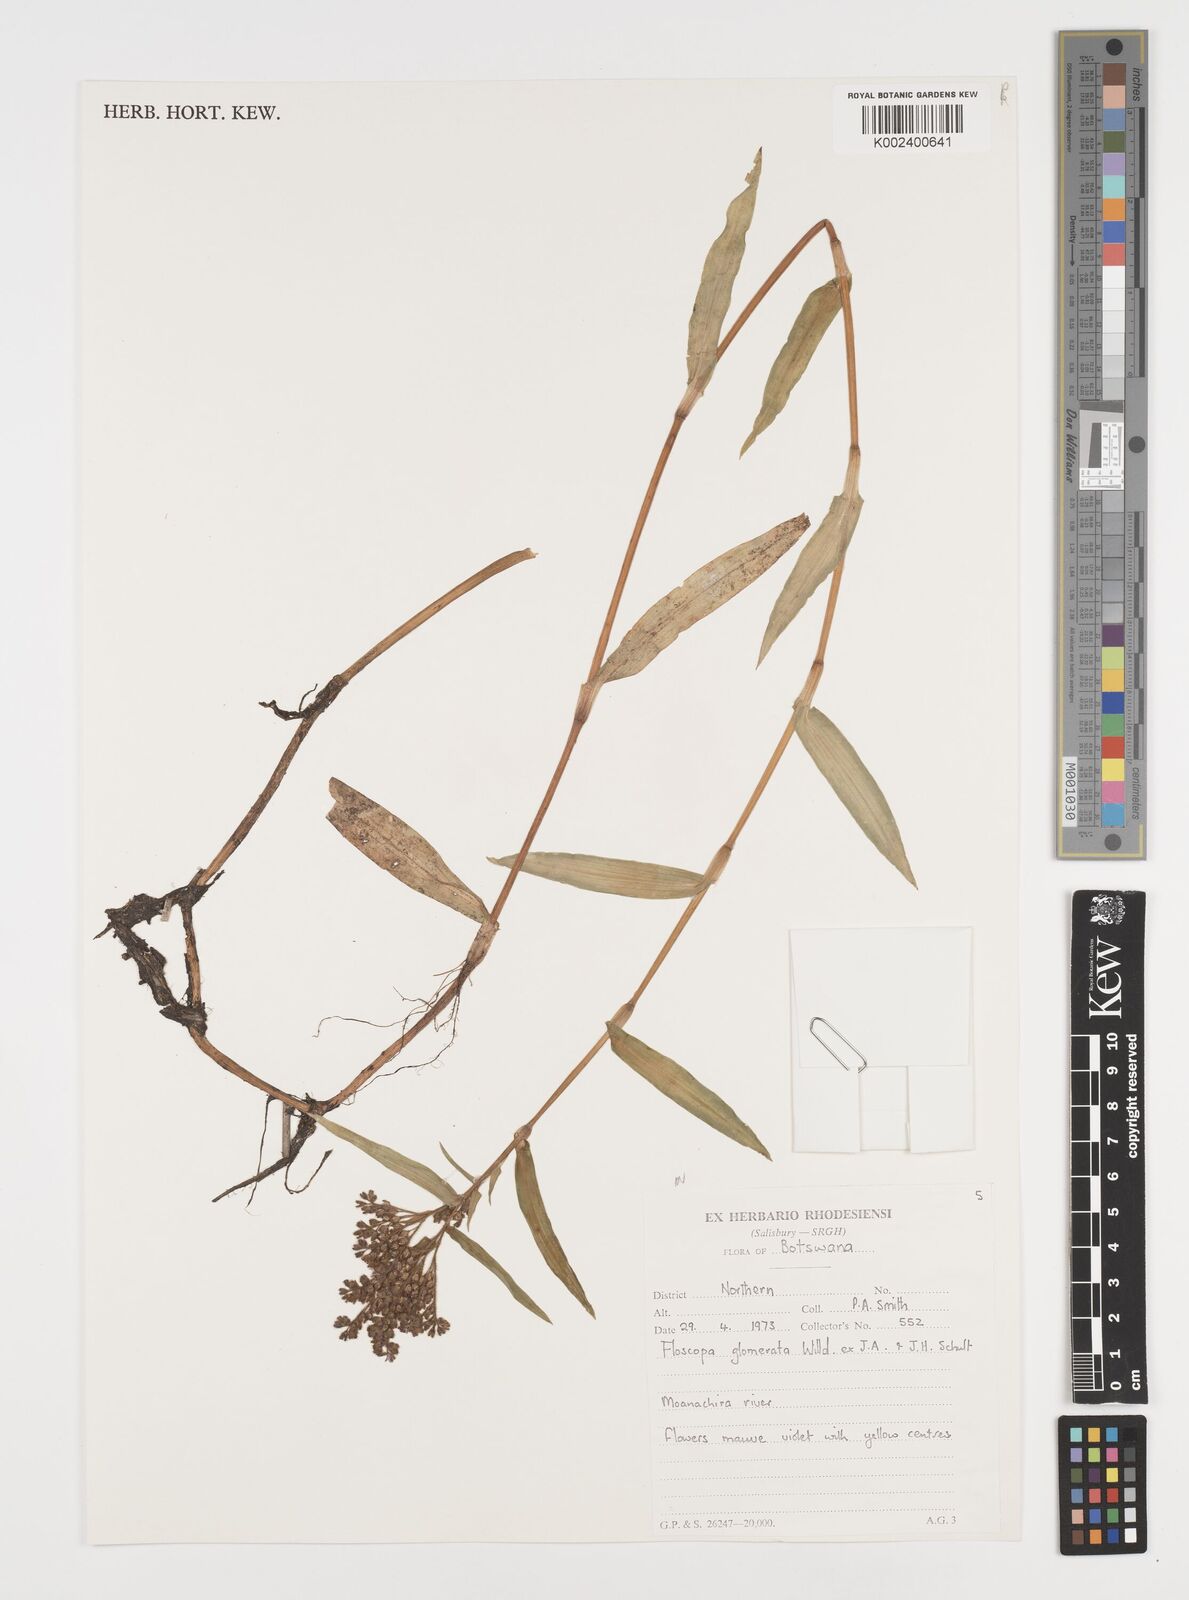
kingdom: Plantae
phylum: Tracheophyta
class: Liliopsida
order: Commelinales
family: Commelinaceae
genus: Floscopa
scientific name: Floscopa glomerata
